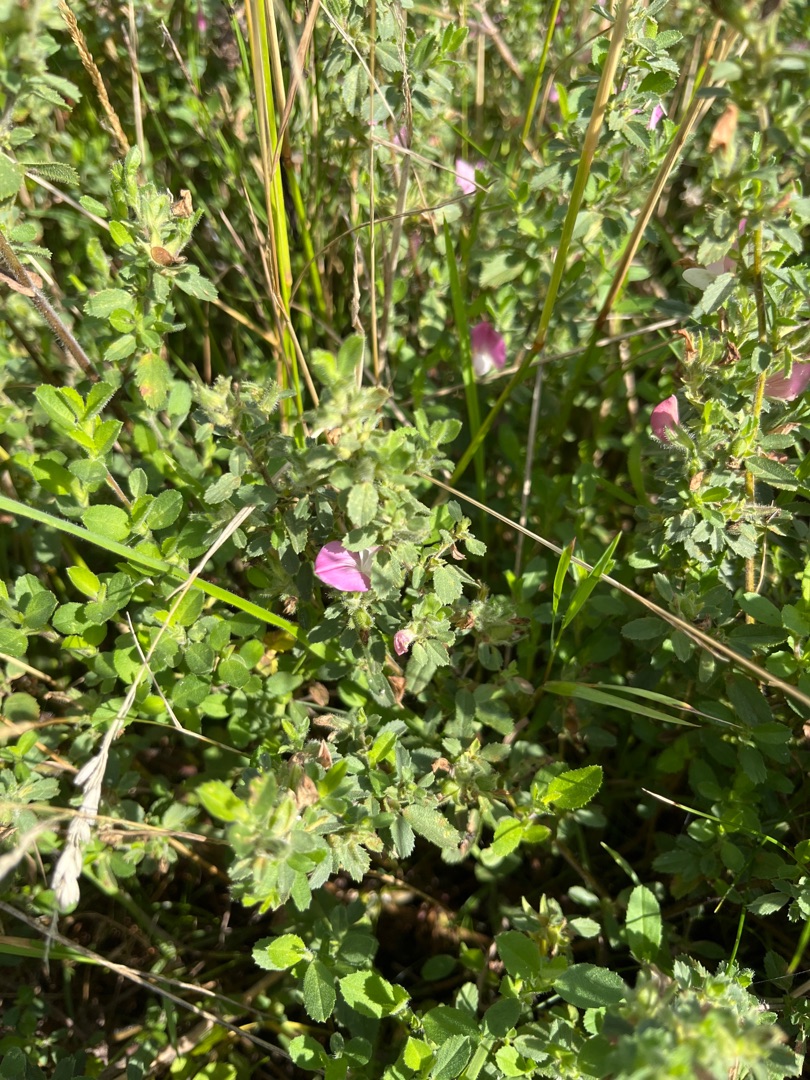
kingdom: Plantae
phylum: Tracheophyta
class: Magnoliopsida
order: Fabales
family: Fabaceae
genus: Ononis
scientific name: Ononis spinosa
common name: Mark-krageklo
